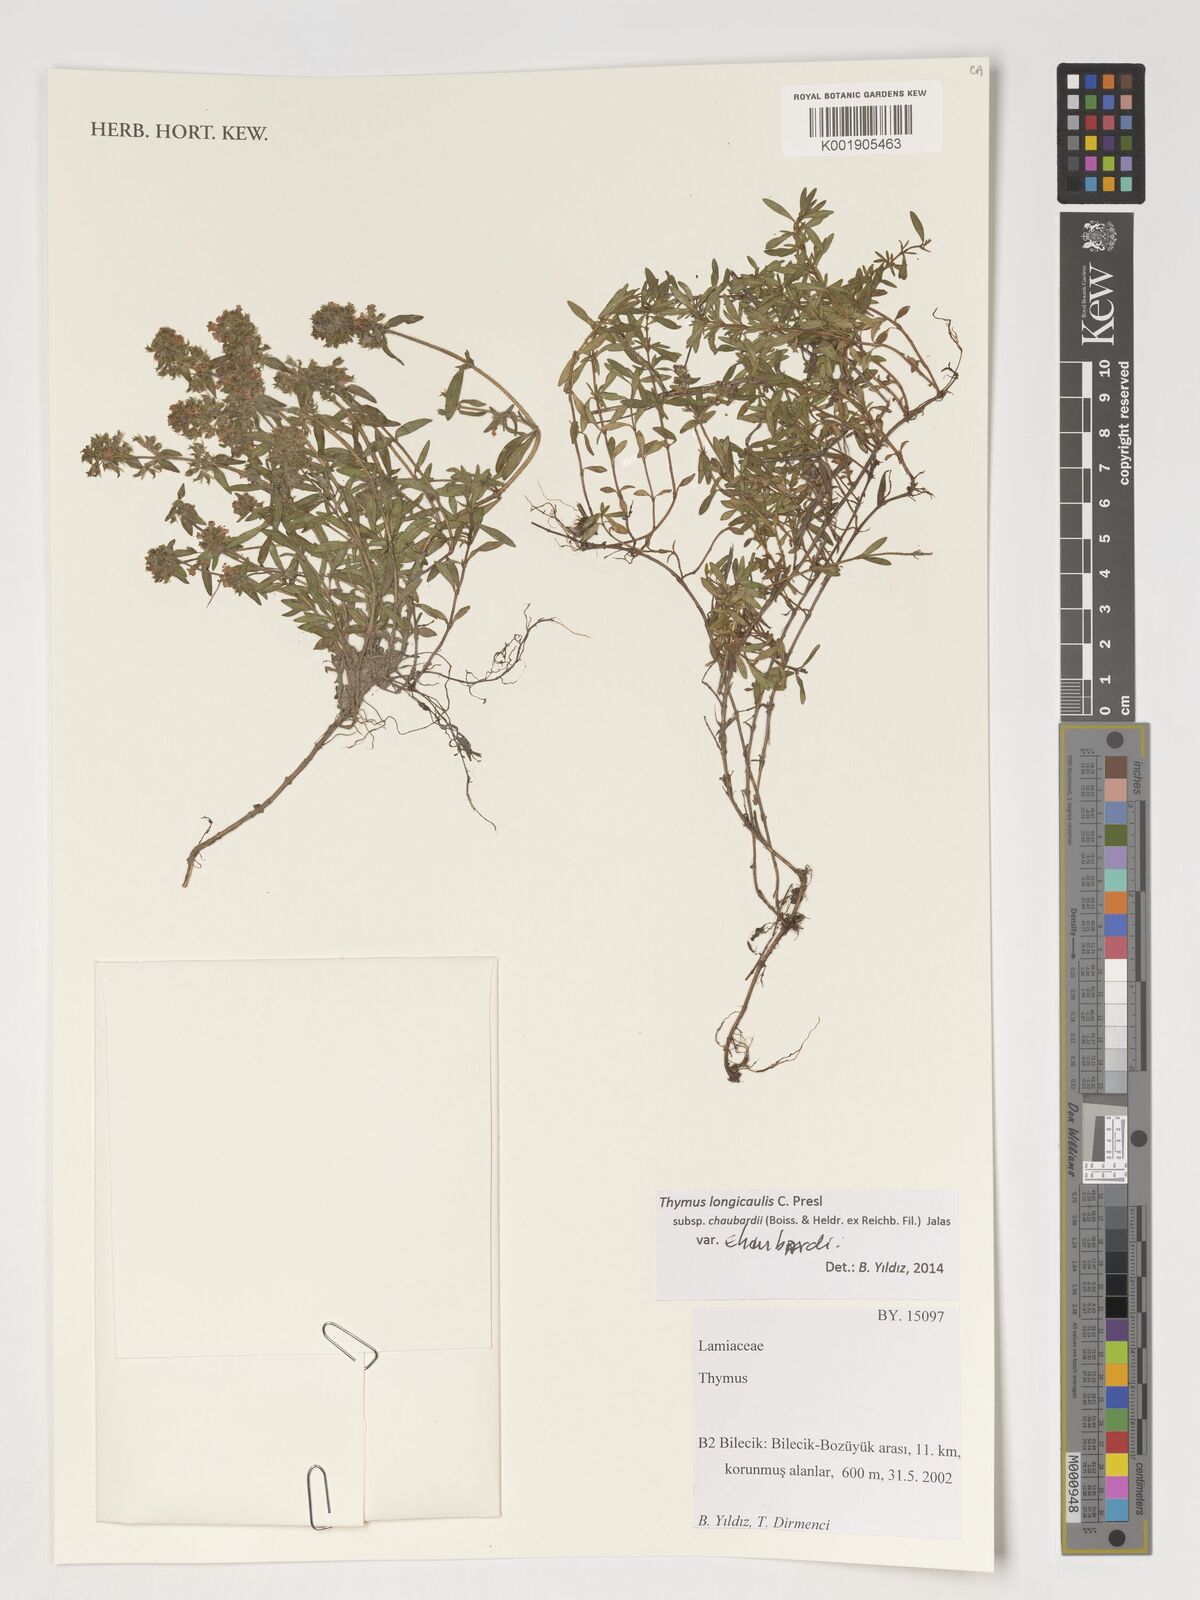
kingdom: Plantae
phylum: Tracheophyta
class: Magnoliopsida
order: Lamiales
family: Lamiaceae
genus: Thymus
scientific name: Thymus longicaulis
